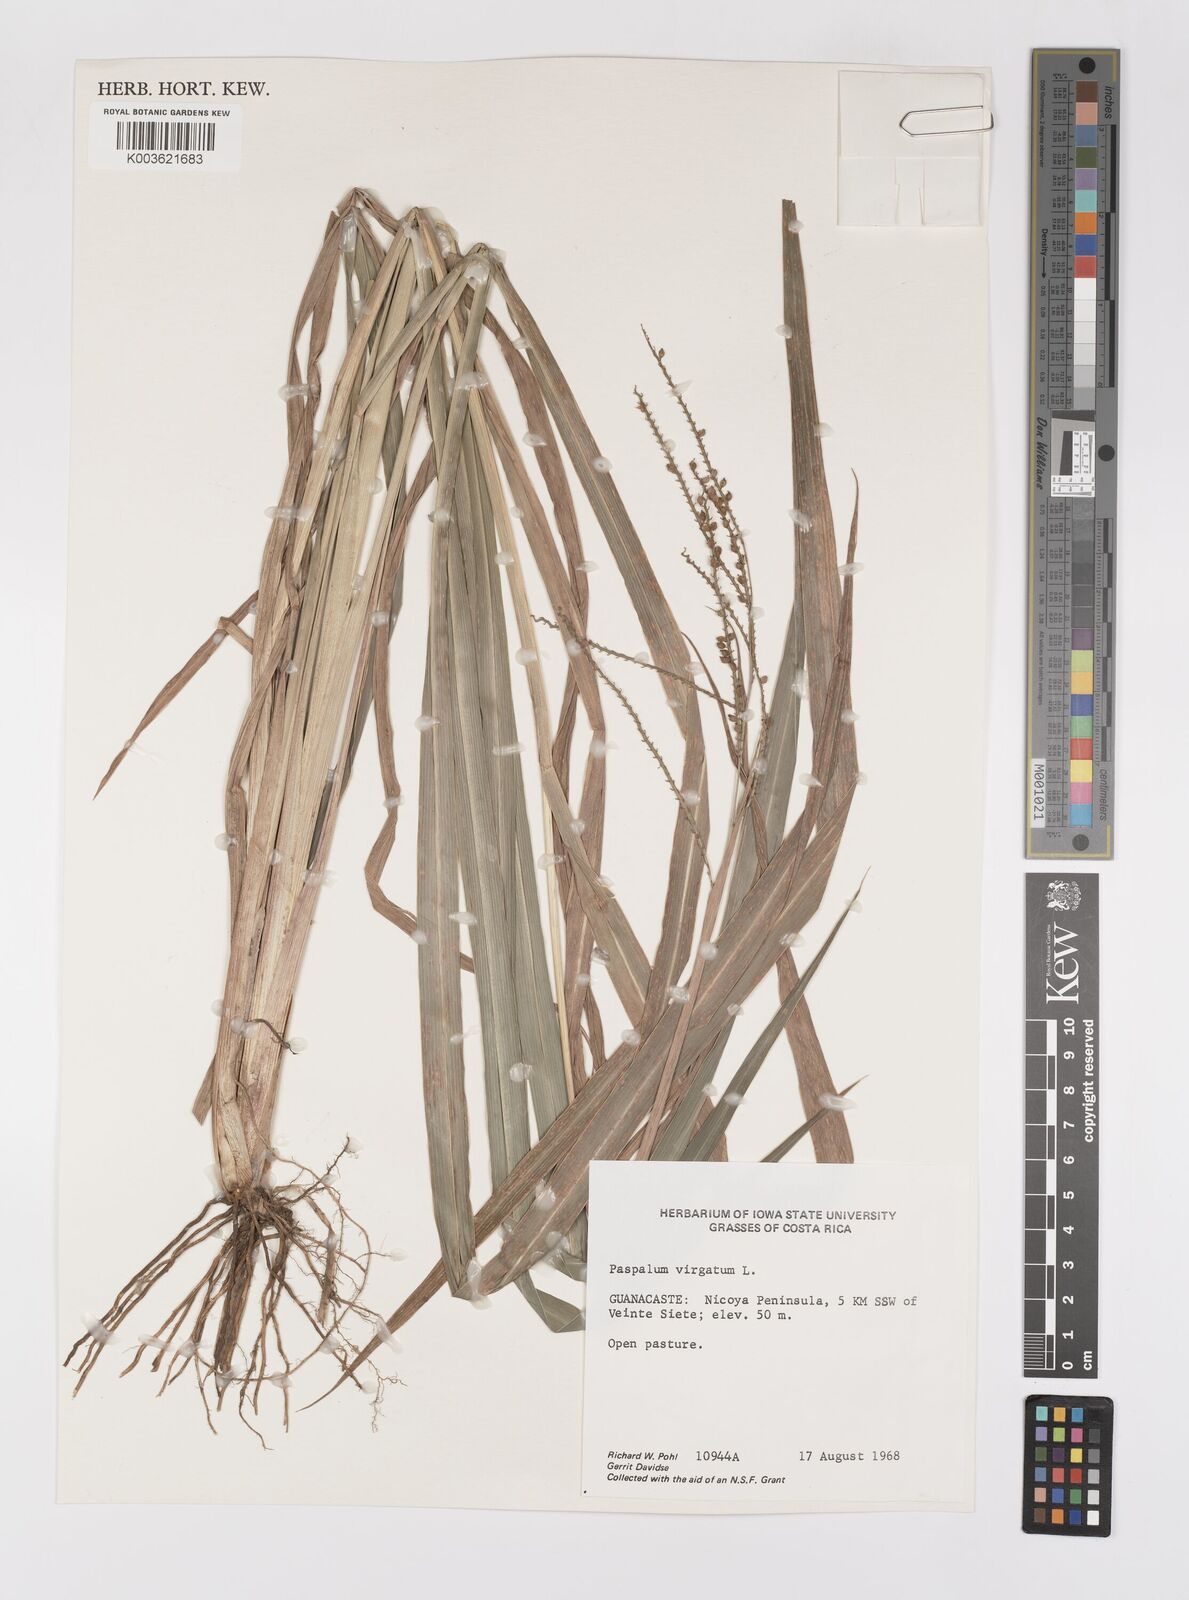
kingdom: Plantae
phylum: Tracheophyta
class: Liliopsida
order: Poales
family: Poaceae
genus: Paspalum
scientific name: Paspalum virgatum
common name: Talquezal
